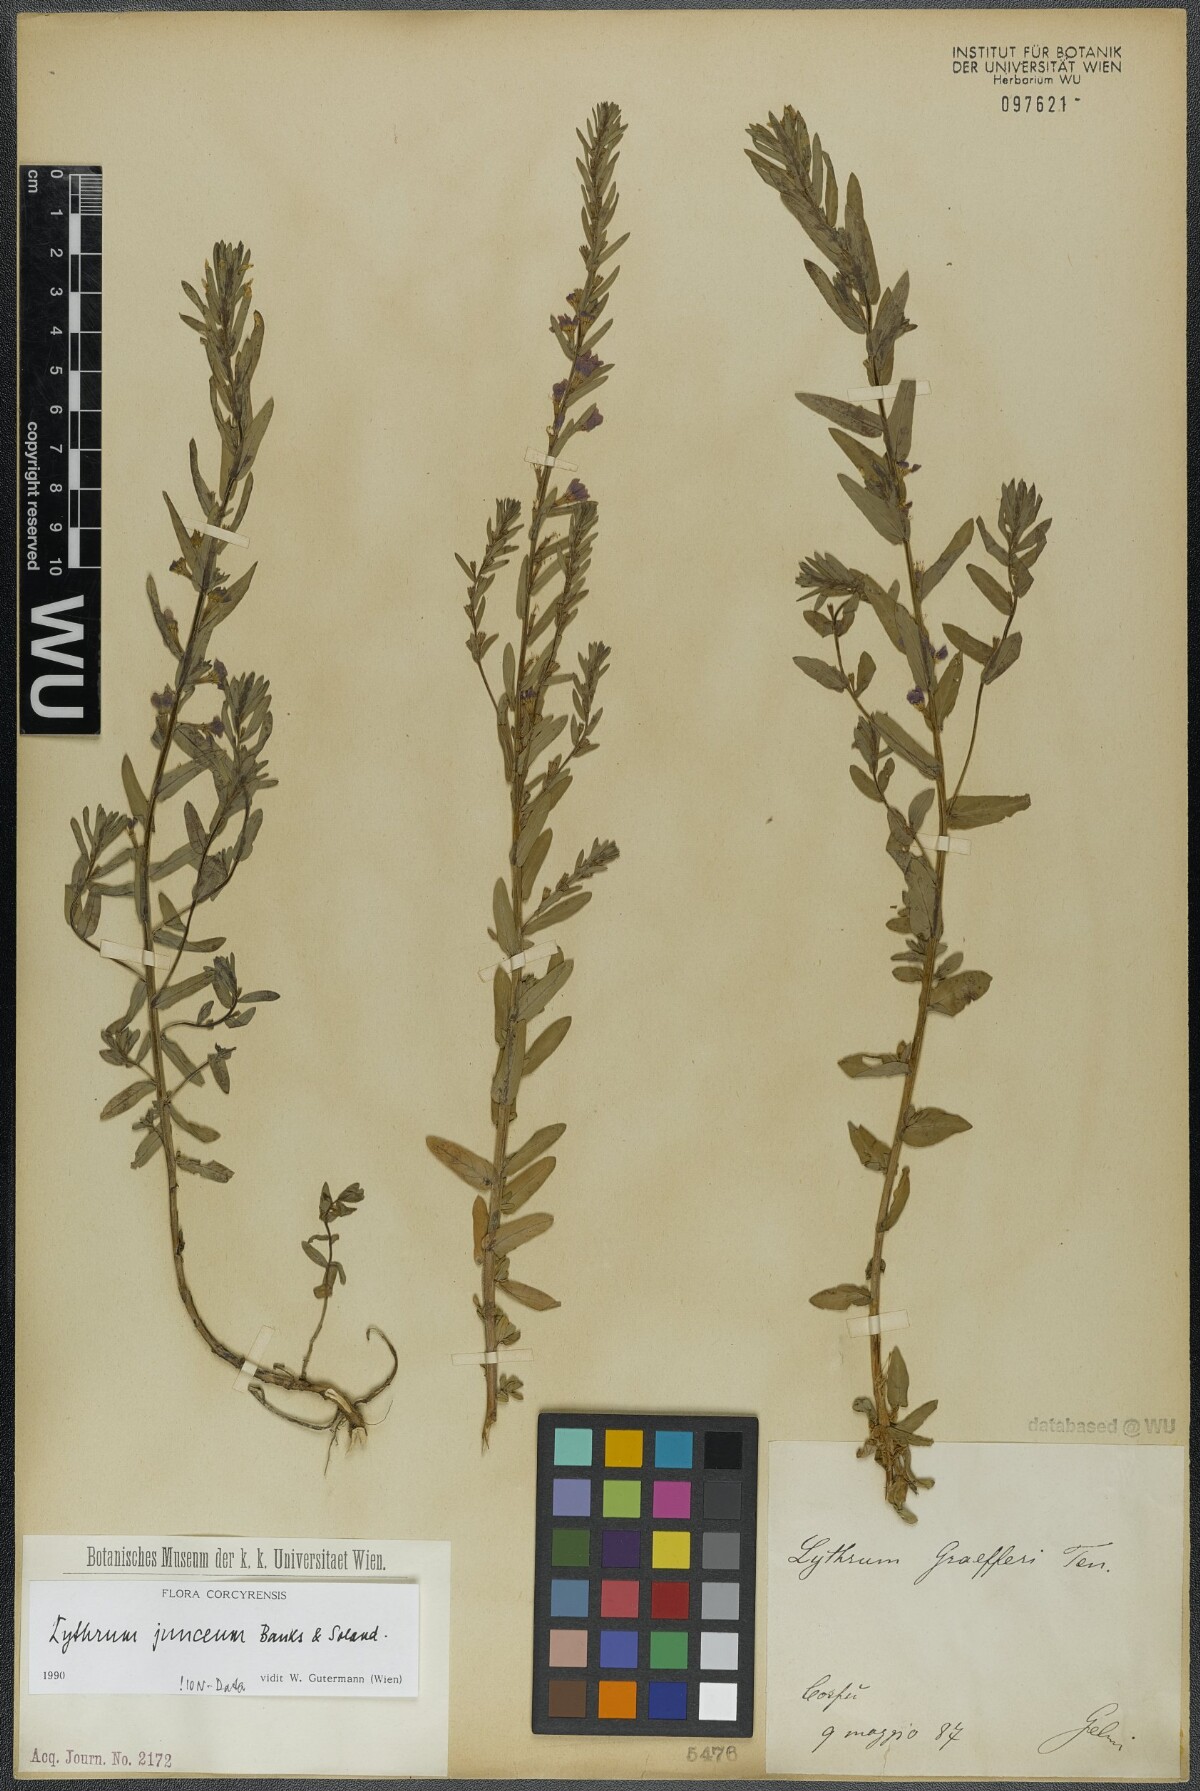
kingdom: Plantae
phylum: Tracheophyta
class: Magnoliopsida
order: Myrtales
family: Lythraceae
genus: Lythrum
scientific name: Lythrum junceum
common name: False grass-poly
